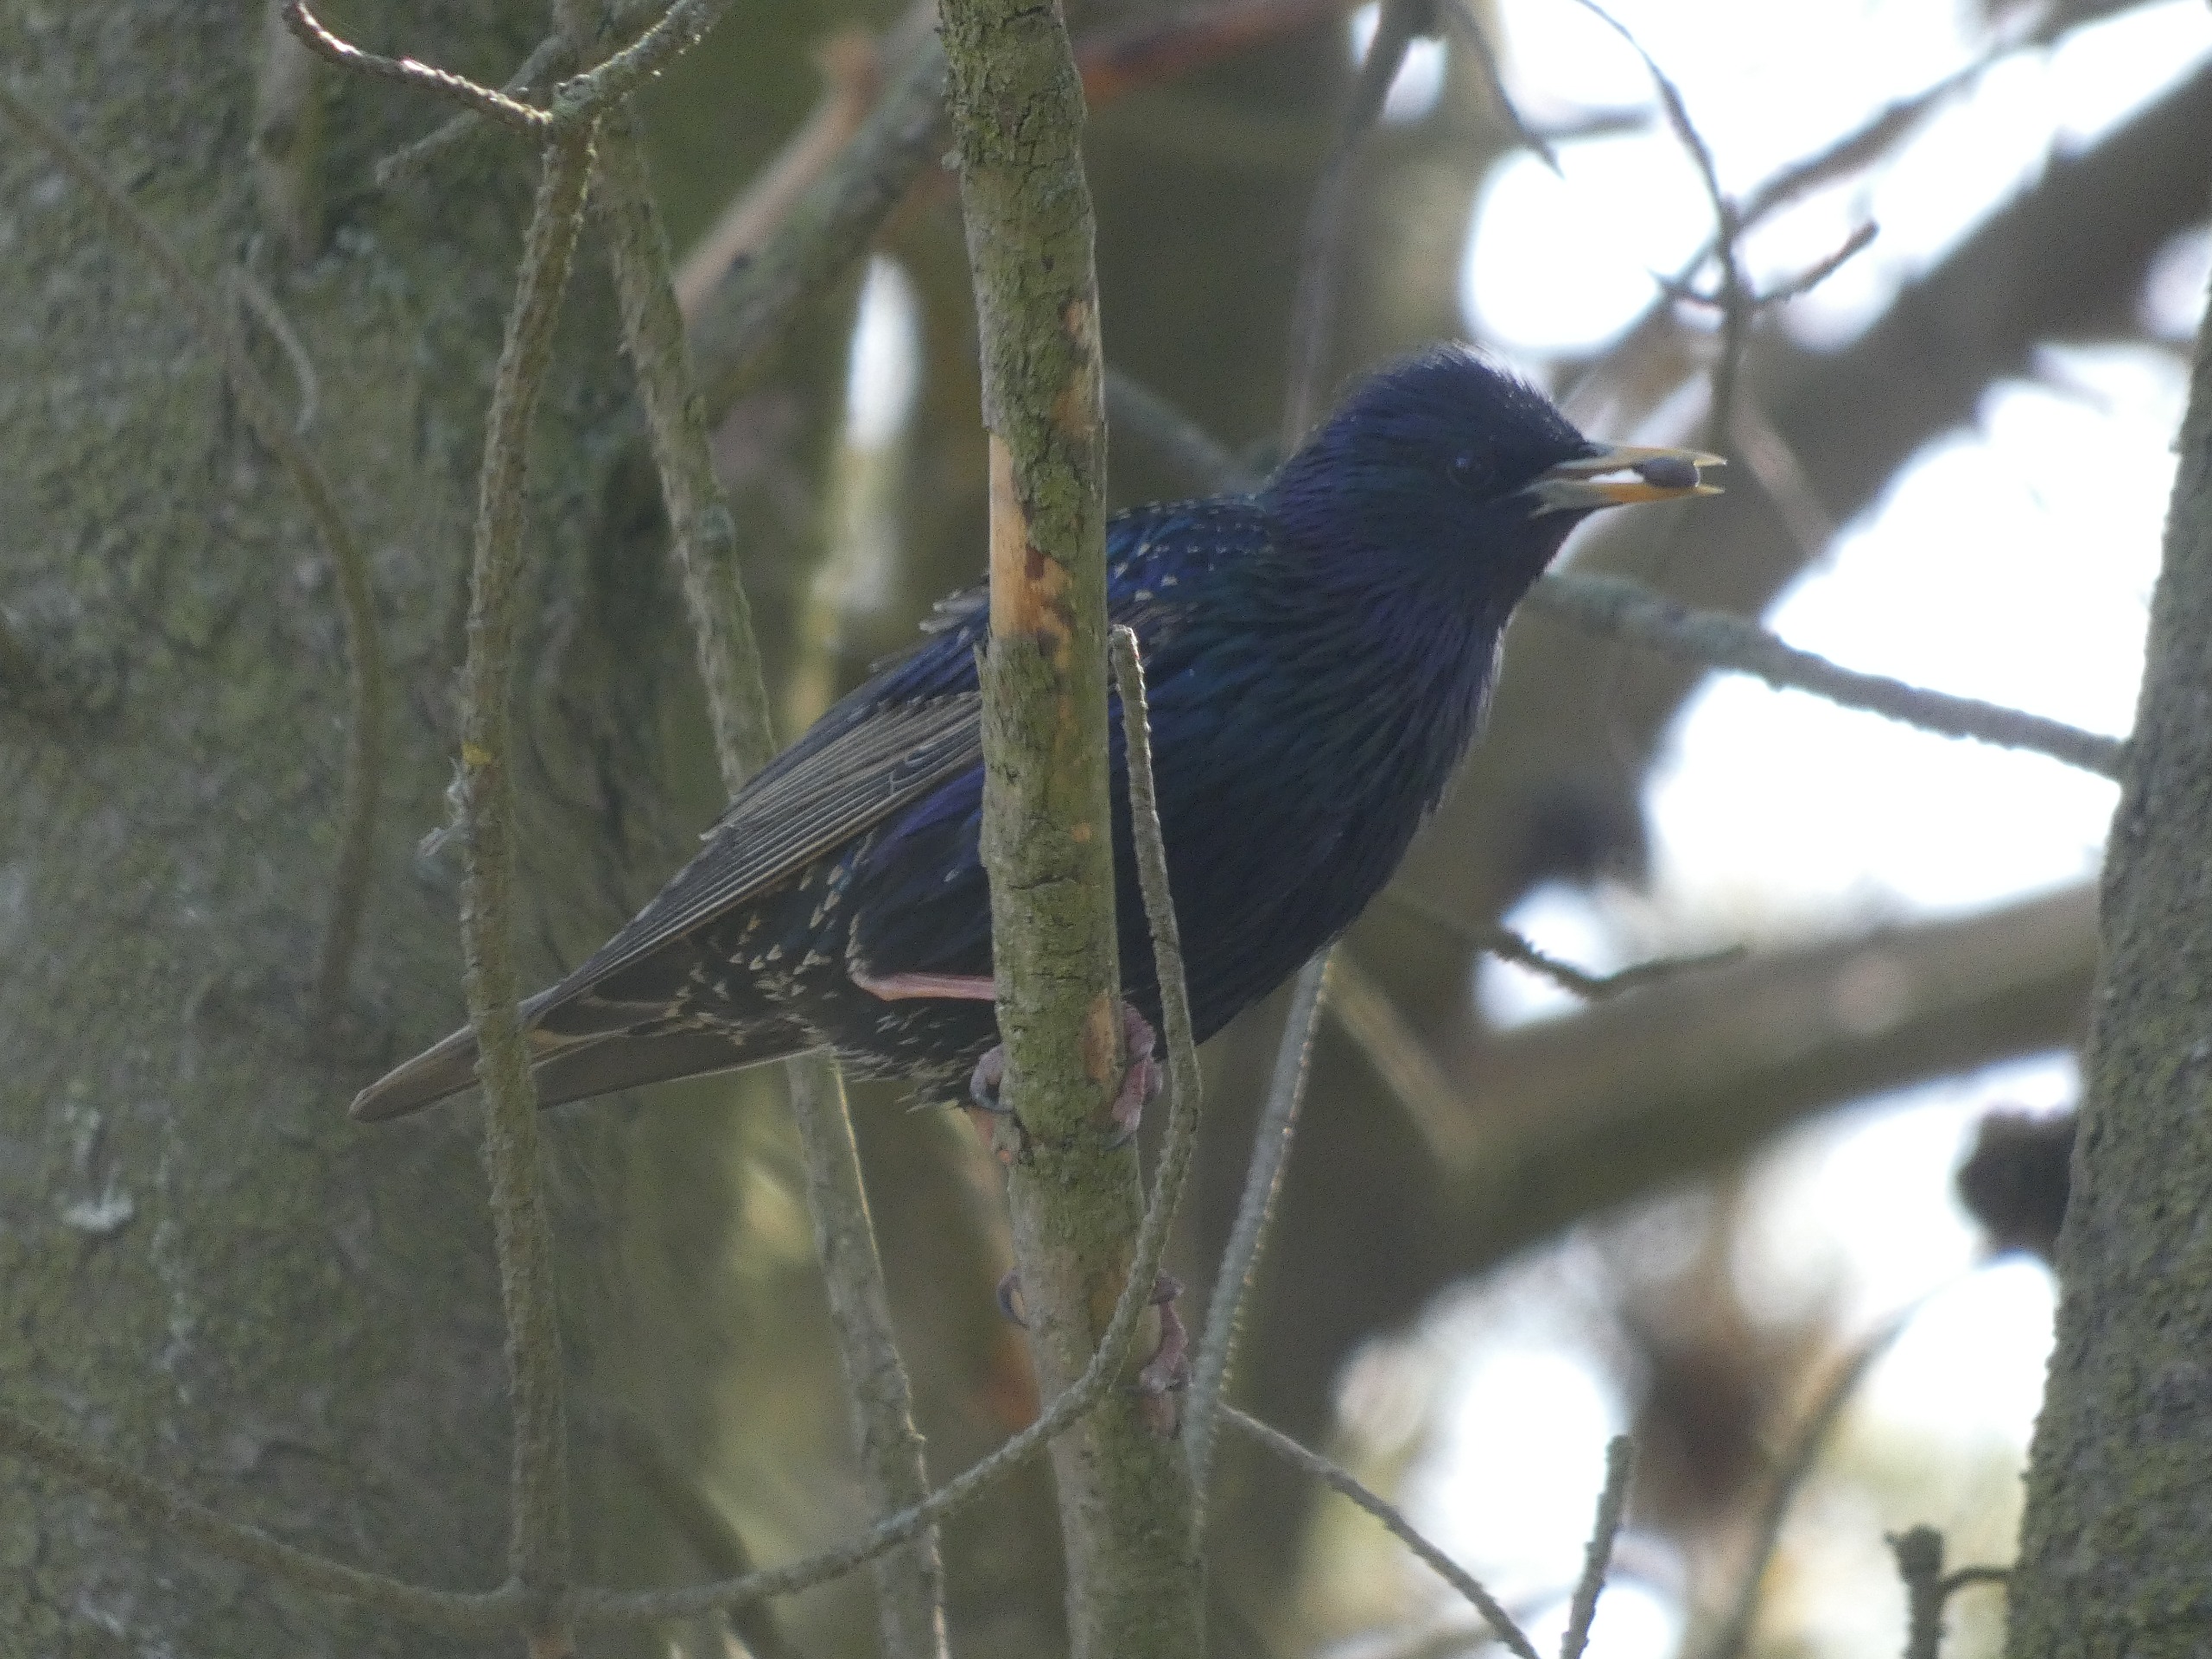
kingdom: Animalia
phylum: Chordata
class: Aves
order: Passeriformes
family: Sturnidae
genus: Sturnus
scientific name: Sturnus vulgaris
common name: Stær
